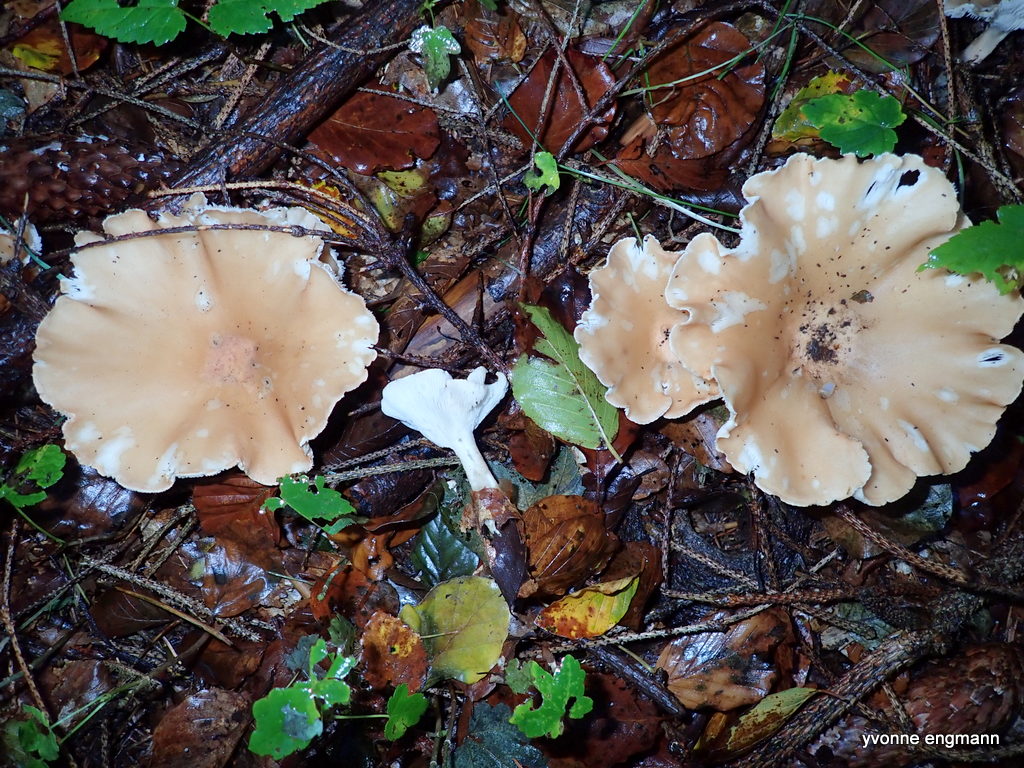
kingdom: Fungi
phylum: Basidiomycota
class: Agaricomycetes
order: Agaricales
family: Tricholomataceae
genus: Infundibulicybe
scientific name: Infundibulicybe gibba
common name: almindelig tragthat
